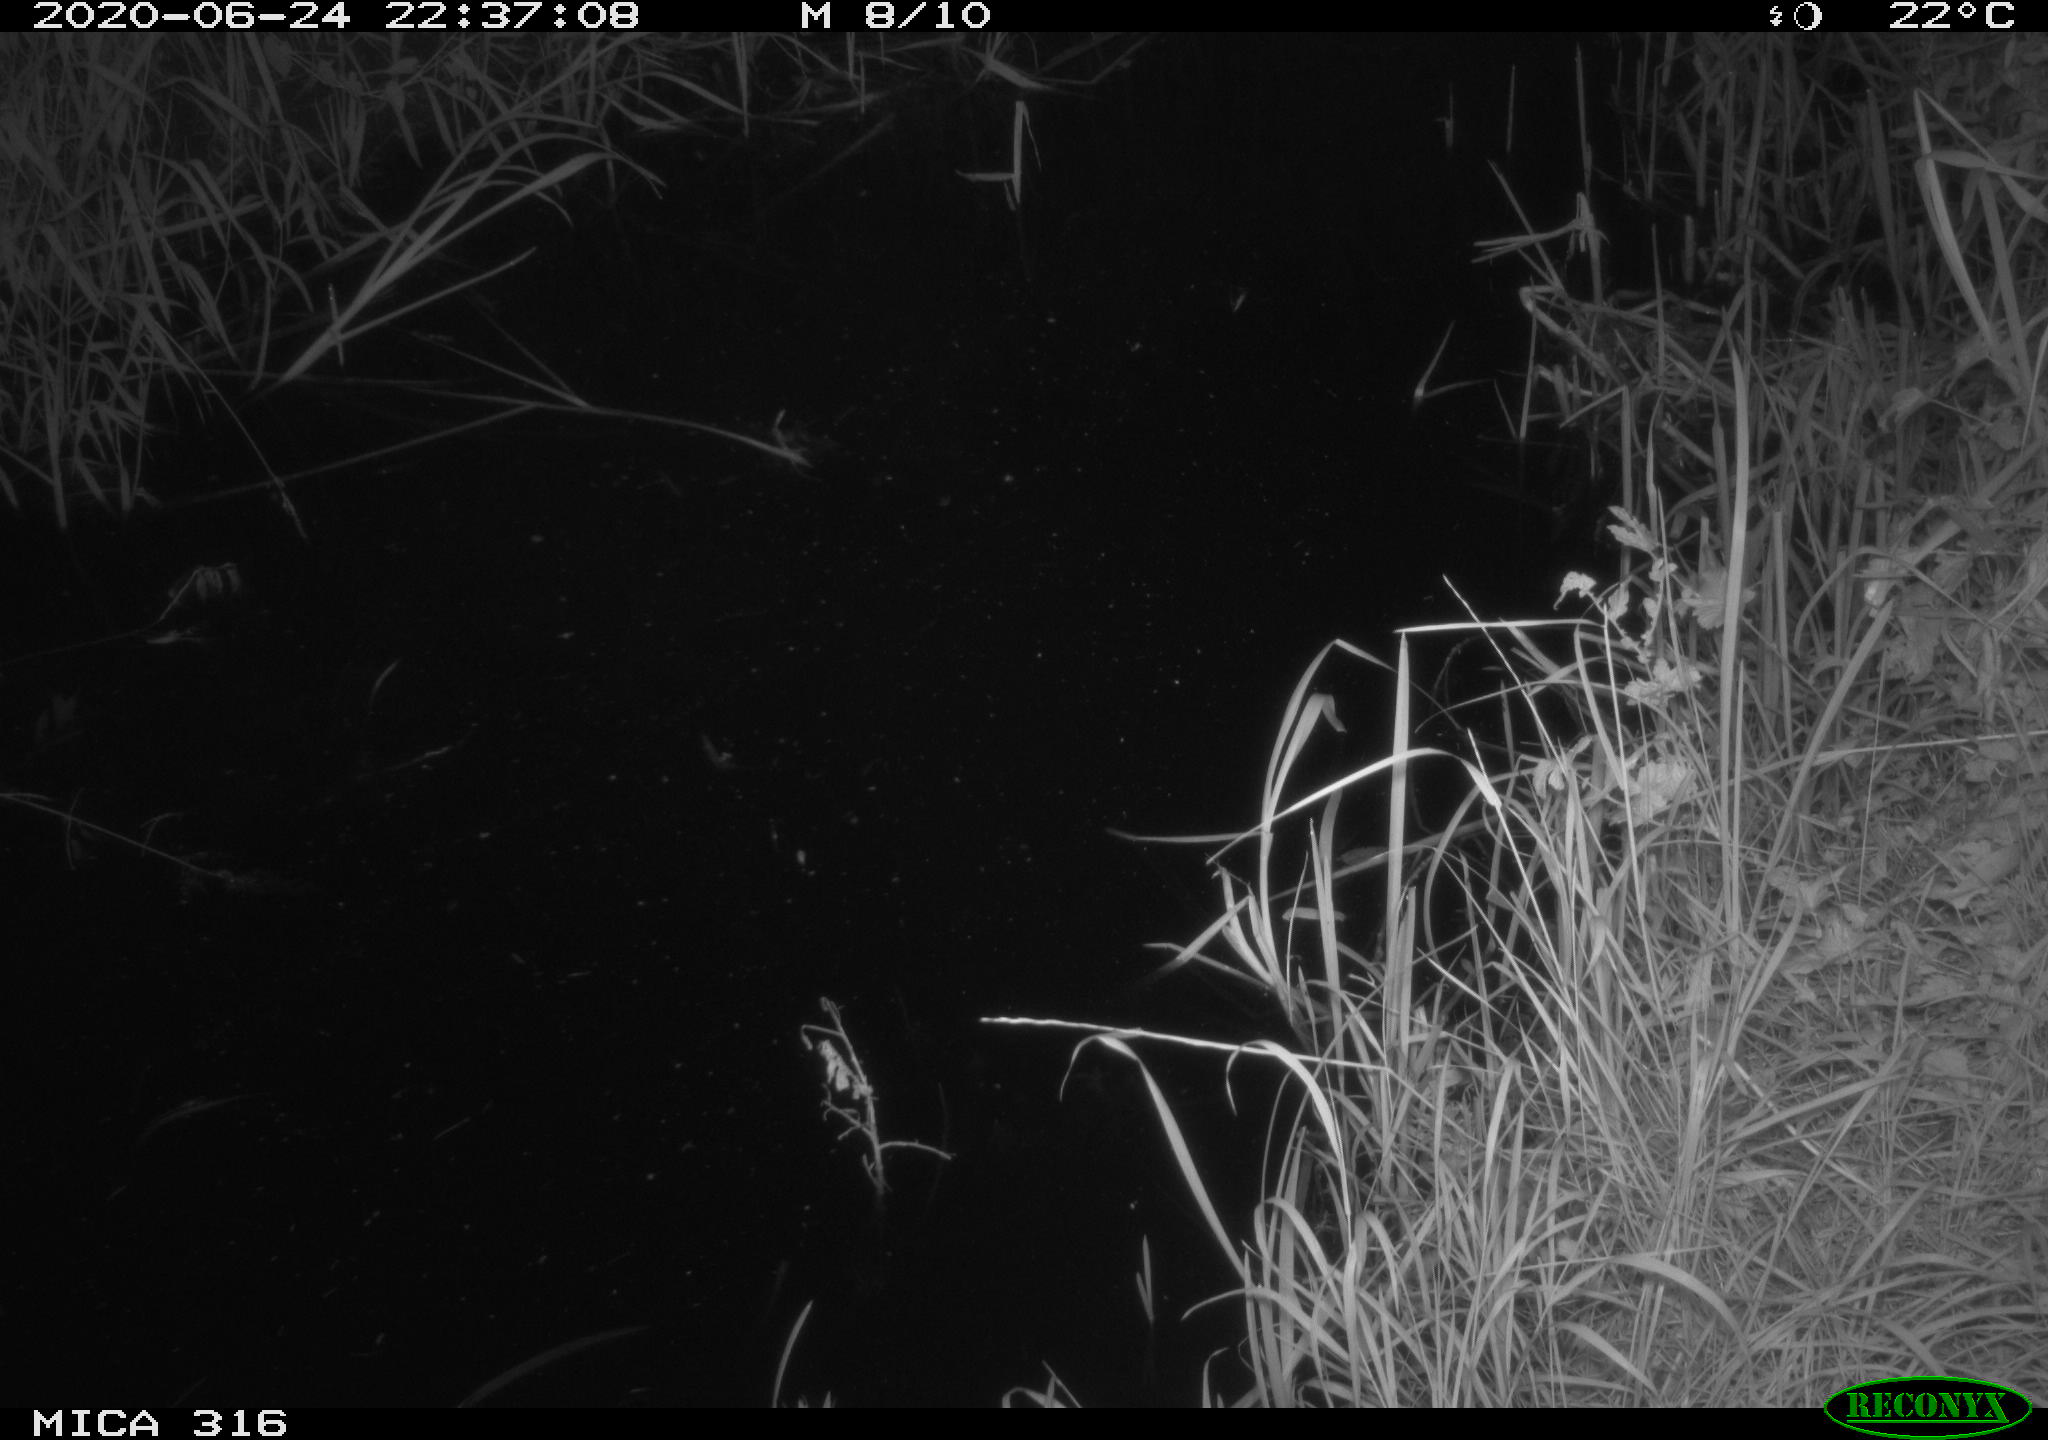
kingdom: Animalia
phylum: Chordata
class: Aves
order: Anseriformes
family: Anatidae
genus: Anas
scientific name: Anas platyrhynchos
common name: Mallard
